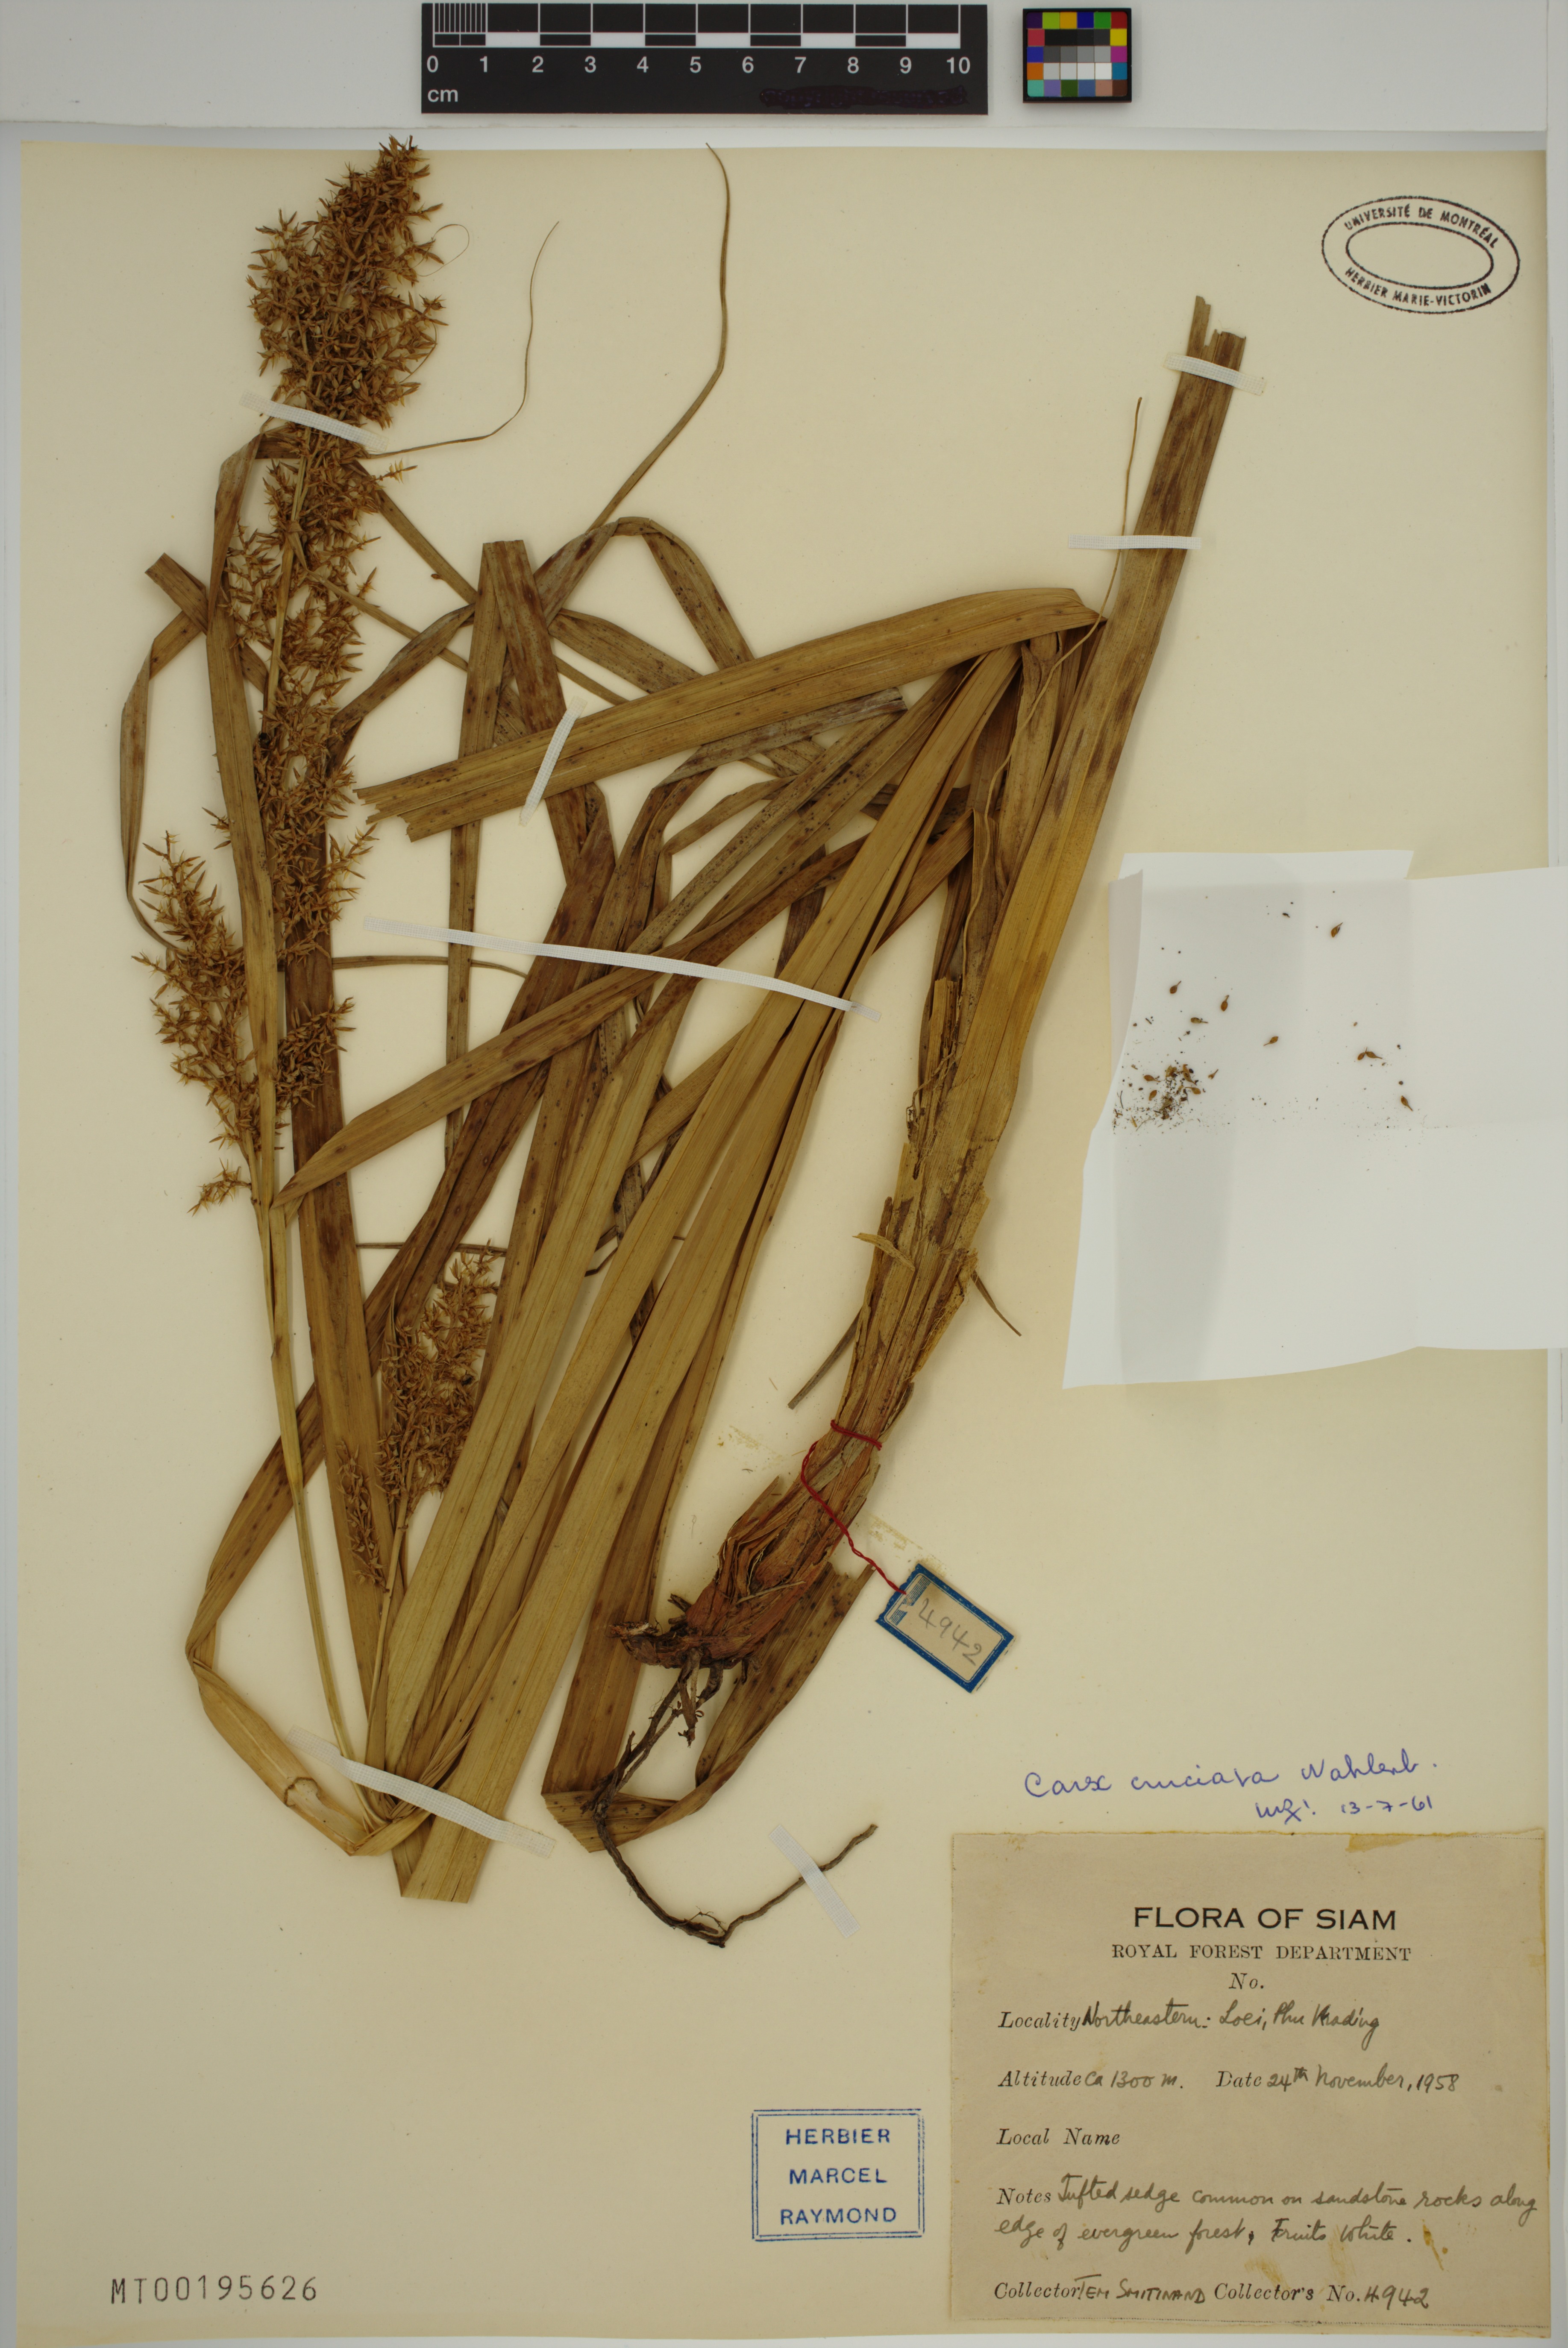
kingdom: Plantae
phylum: Tracheophyta
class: Liliopsida
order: Poales
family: Cyperaceae
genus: Carex
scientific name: Carex cruciata
